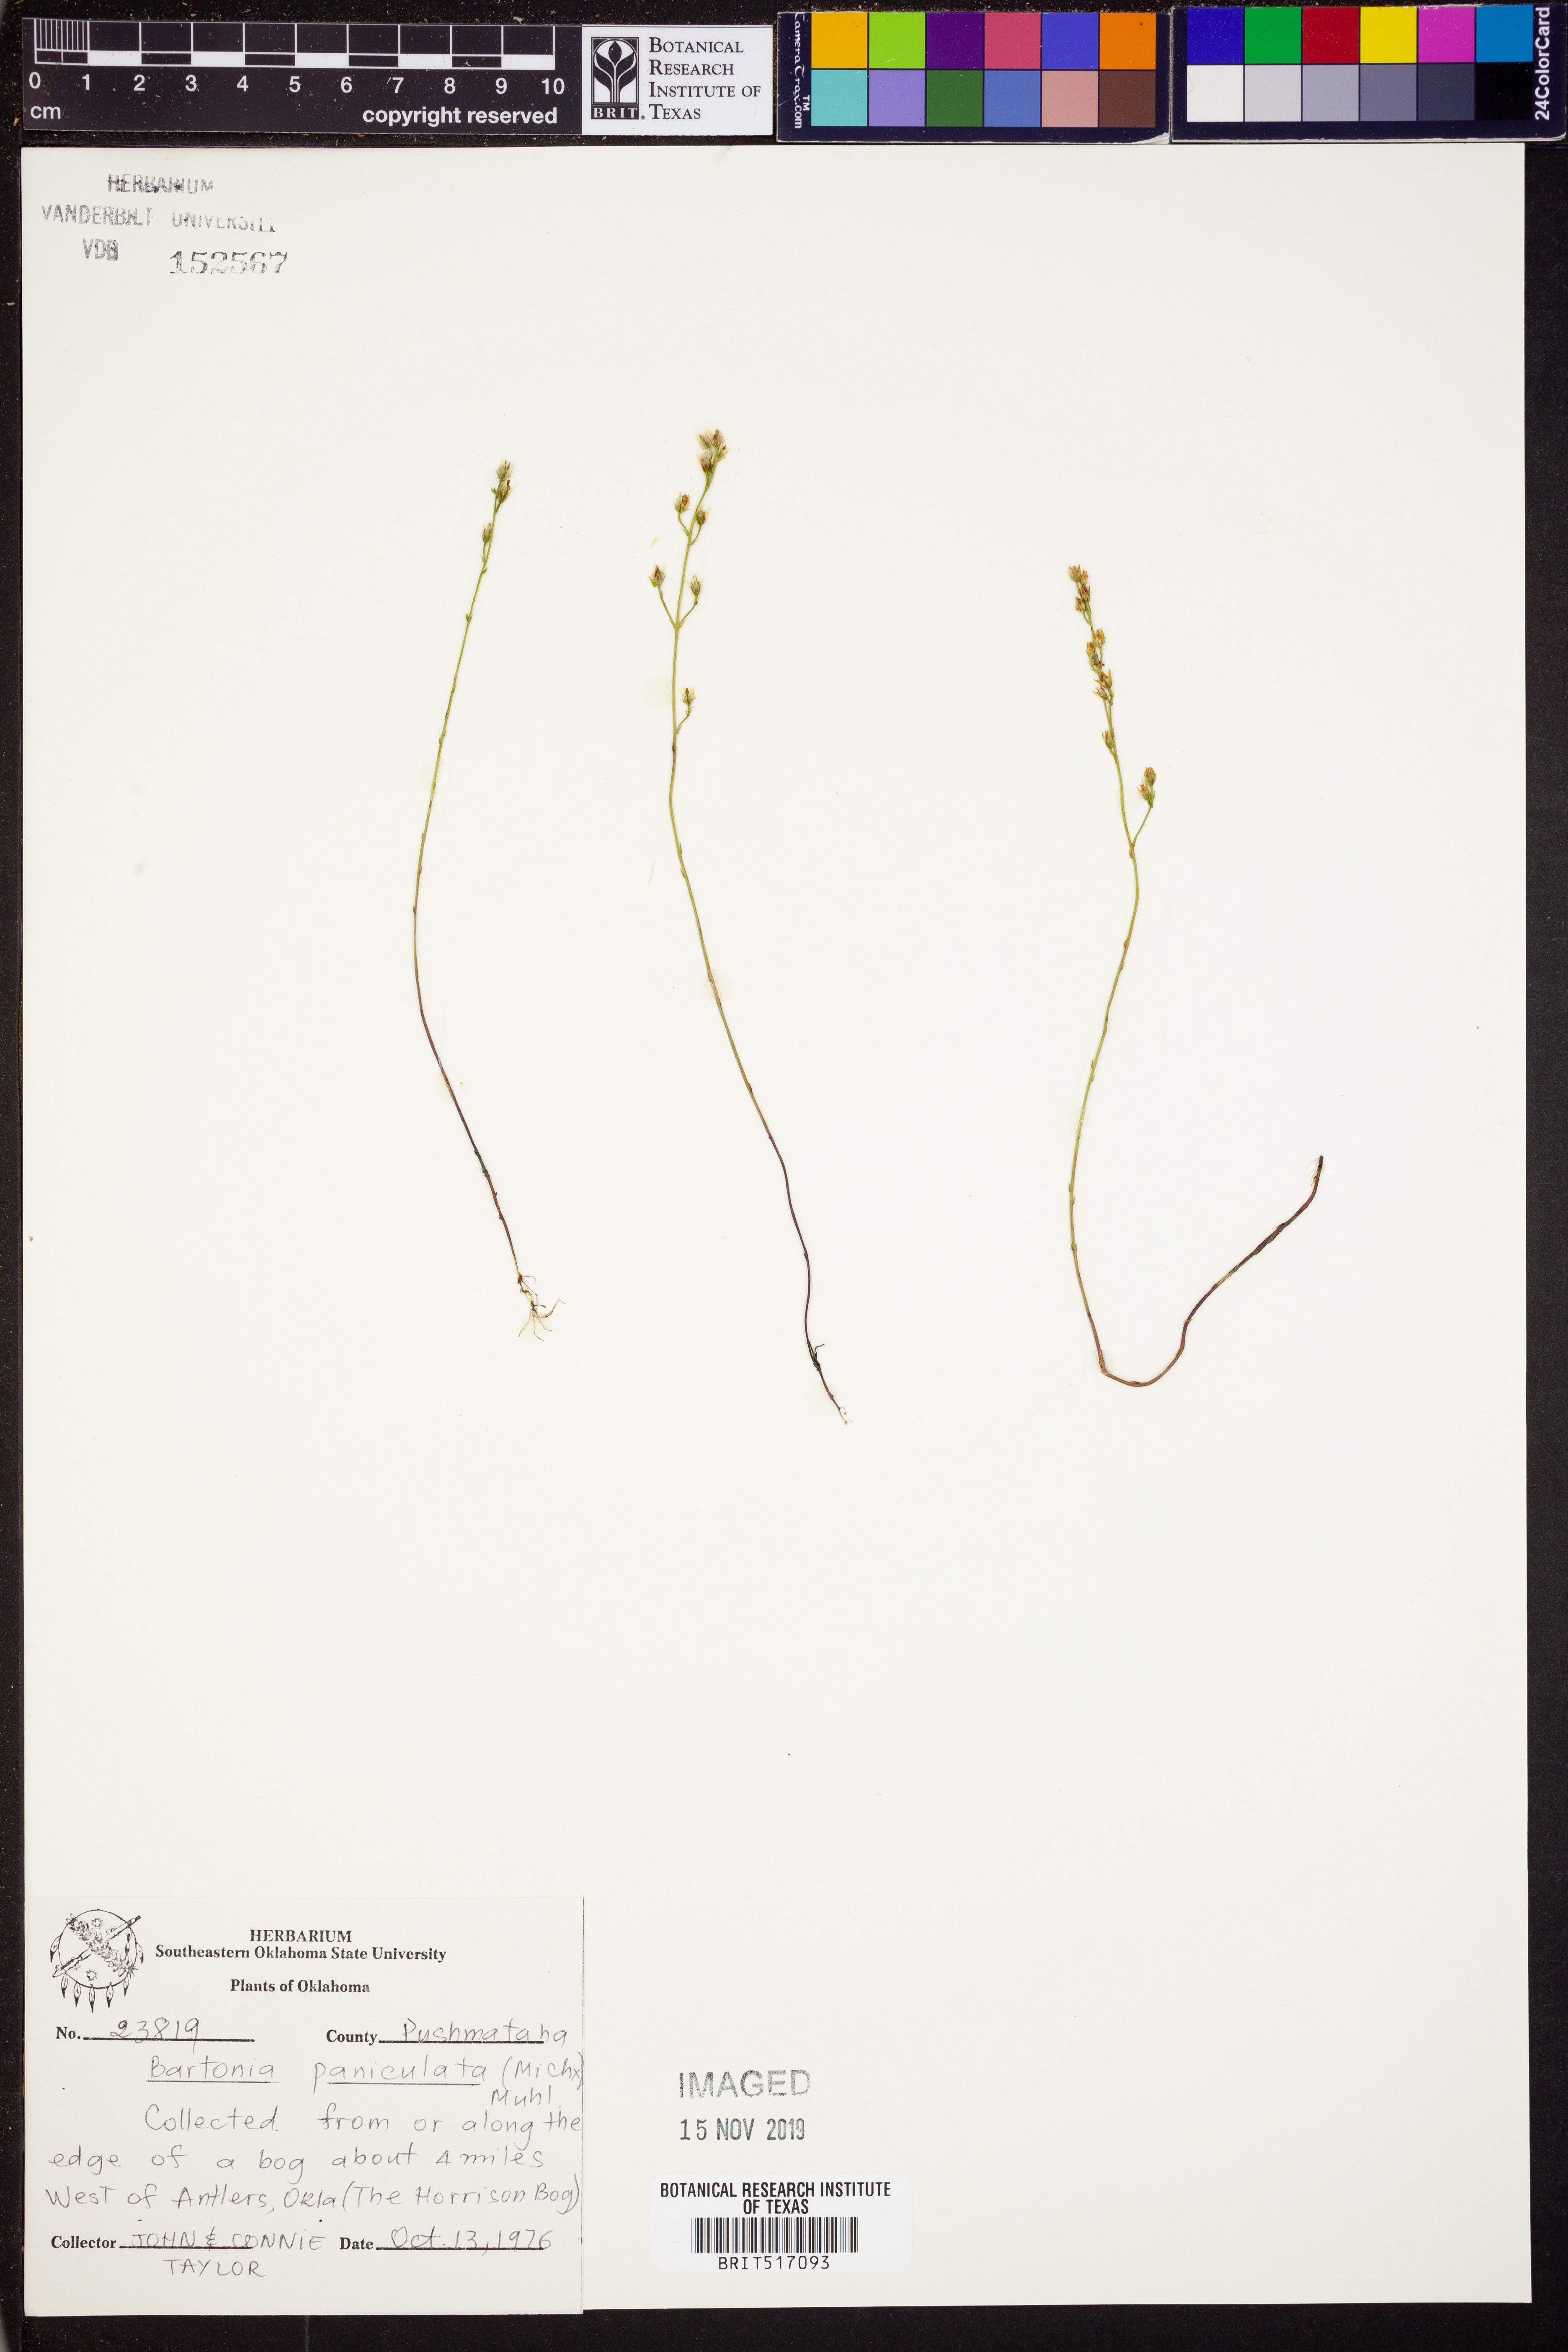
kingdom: Plantae
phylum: Tracheophyta
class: Magnoliopsida
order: Gentianales
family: Gentianaceae
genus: Bartonia
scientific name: Bartonia paniculata
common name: Branched bartonia
